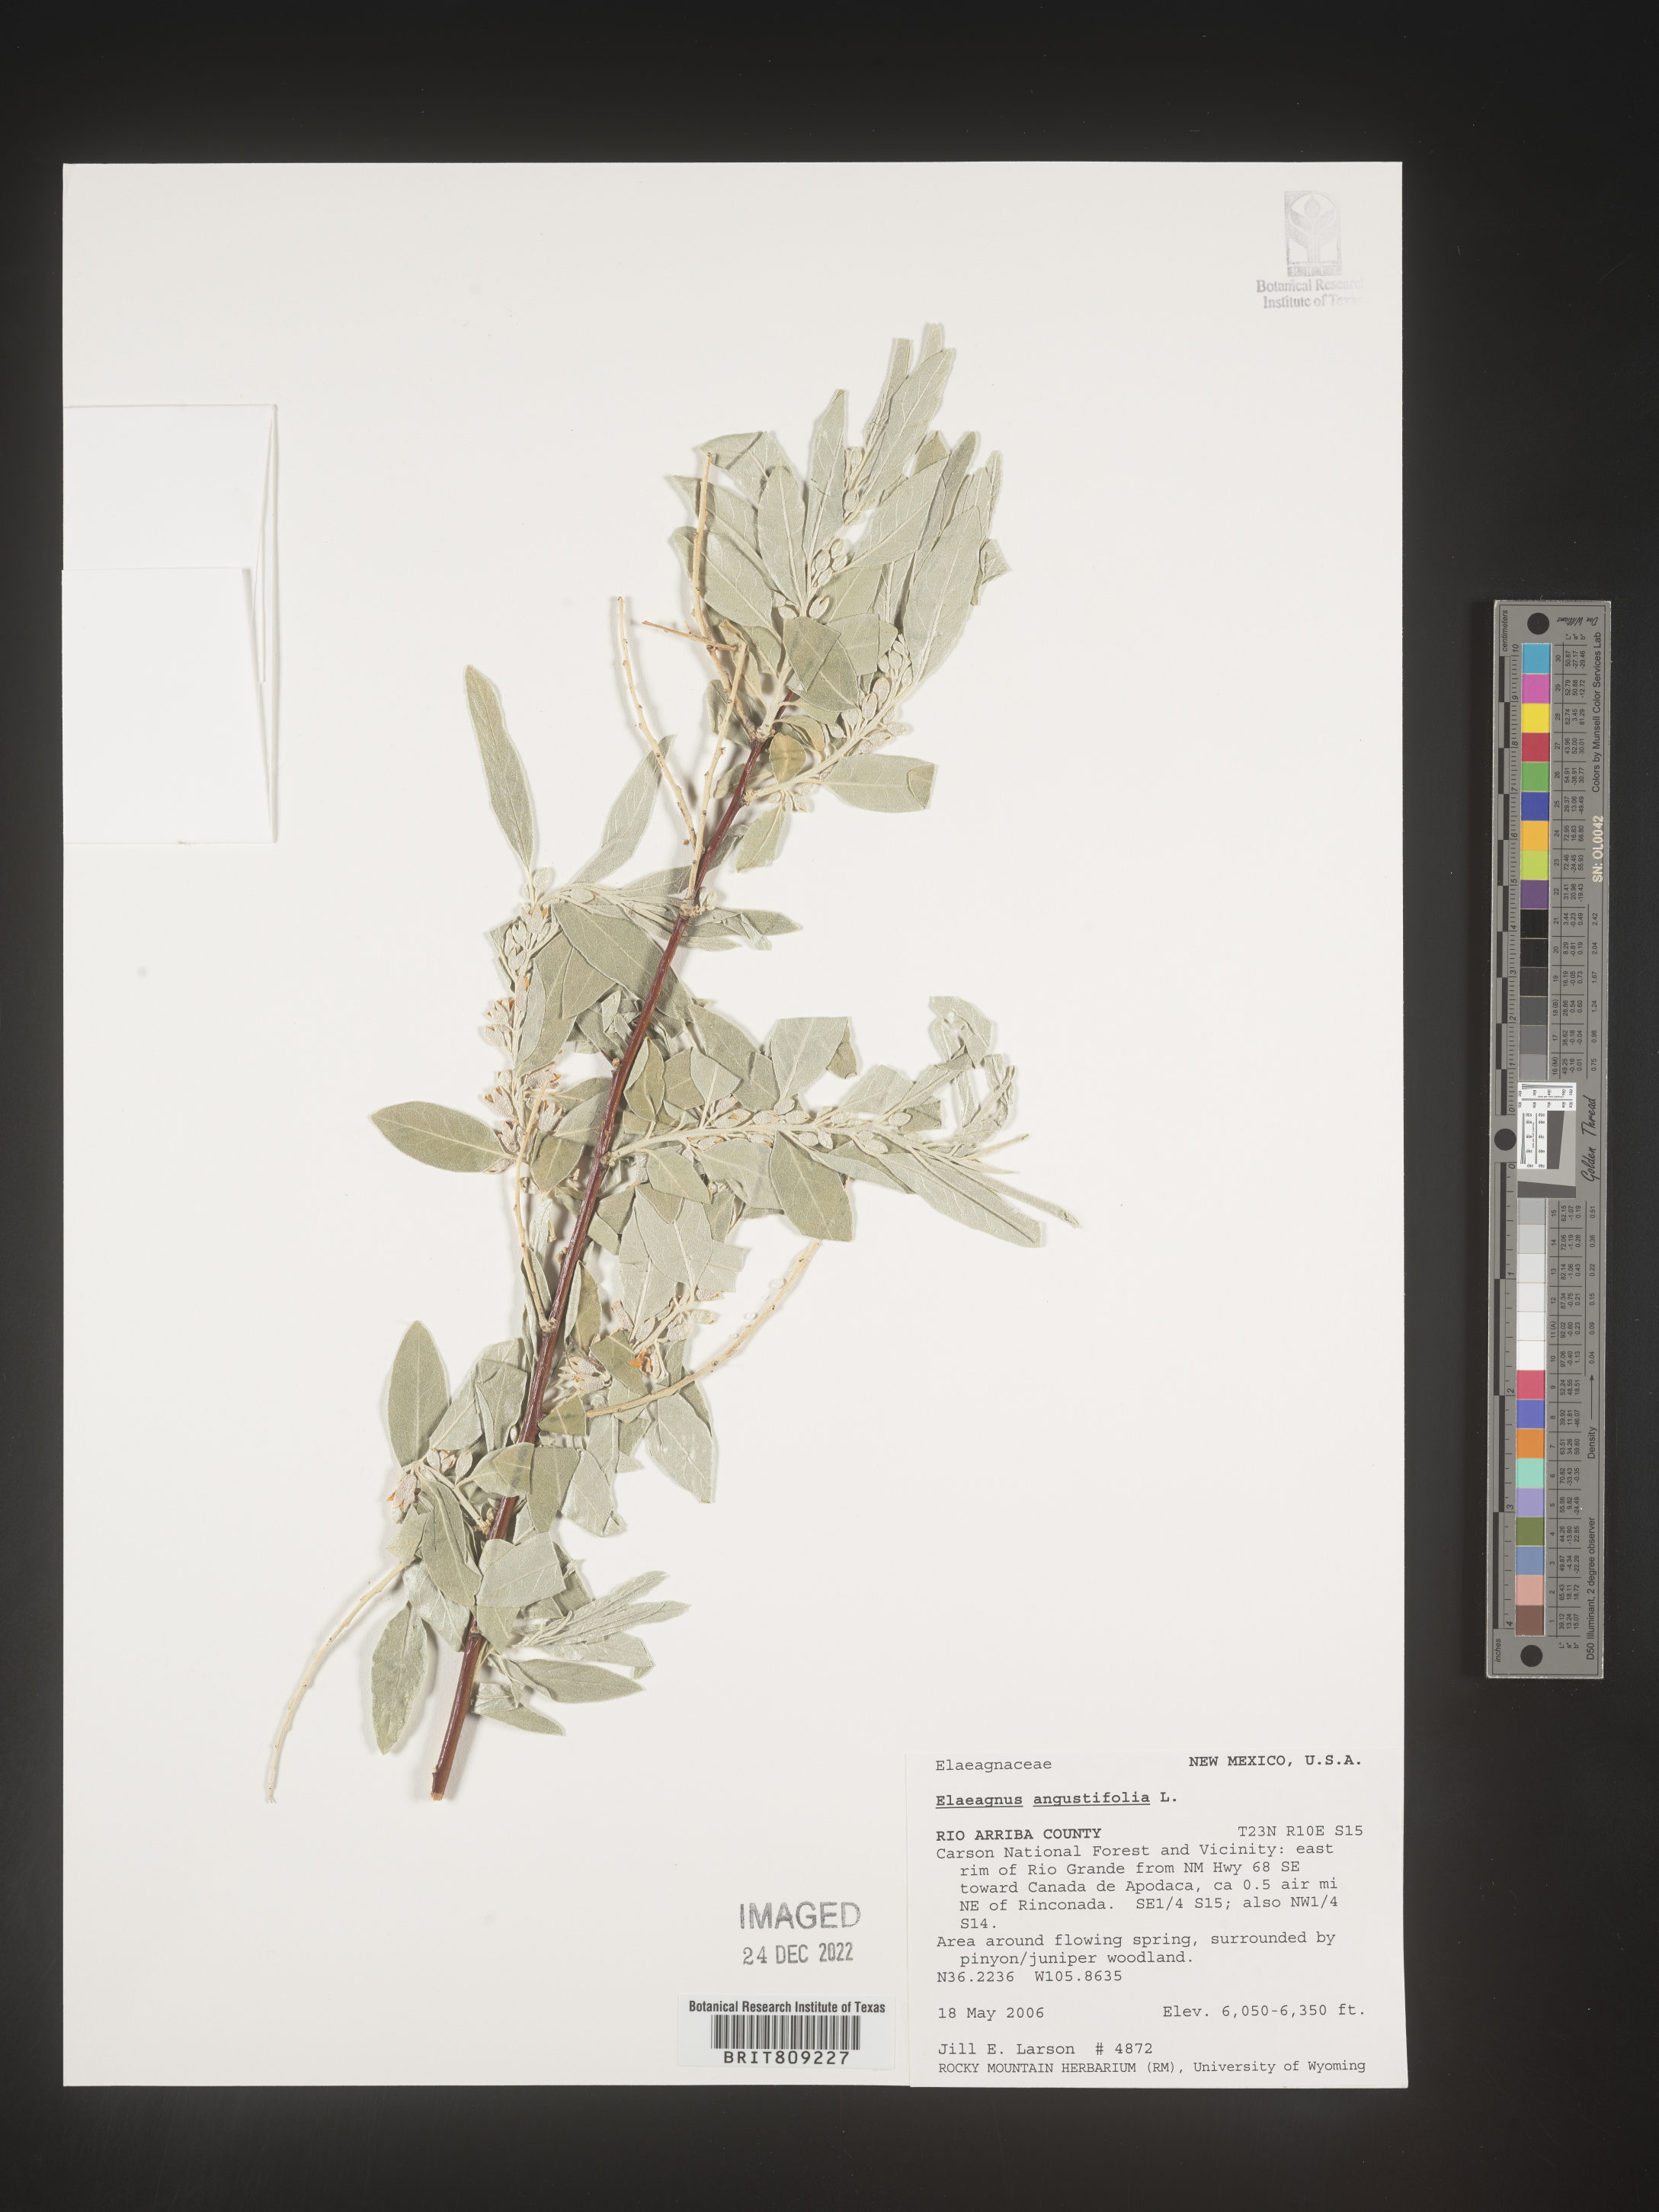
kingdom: Plantae
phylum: Tracheophyta
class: Magnoliopsida
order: Rosales
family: Elaeagnaceae
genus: Elaeagnus
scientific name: Elaeagnus angustifolia
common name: Russian olive
